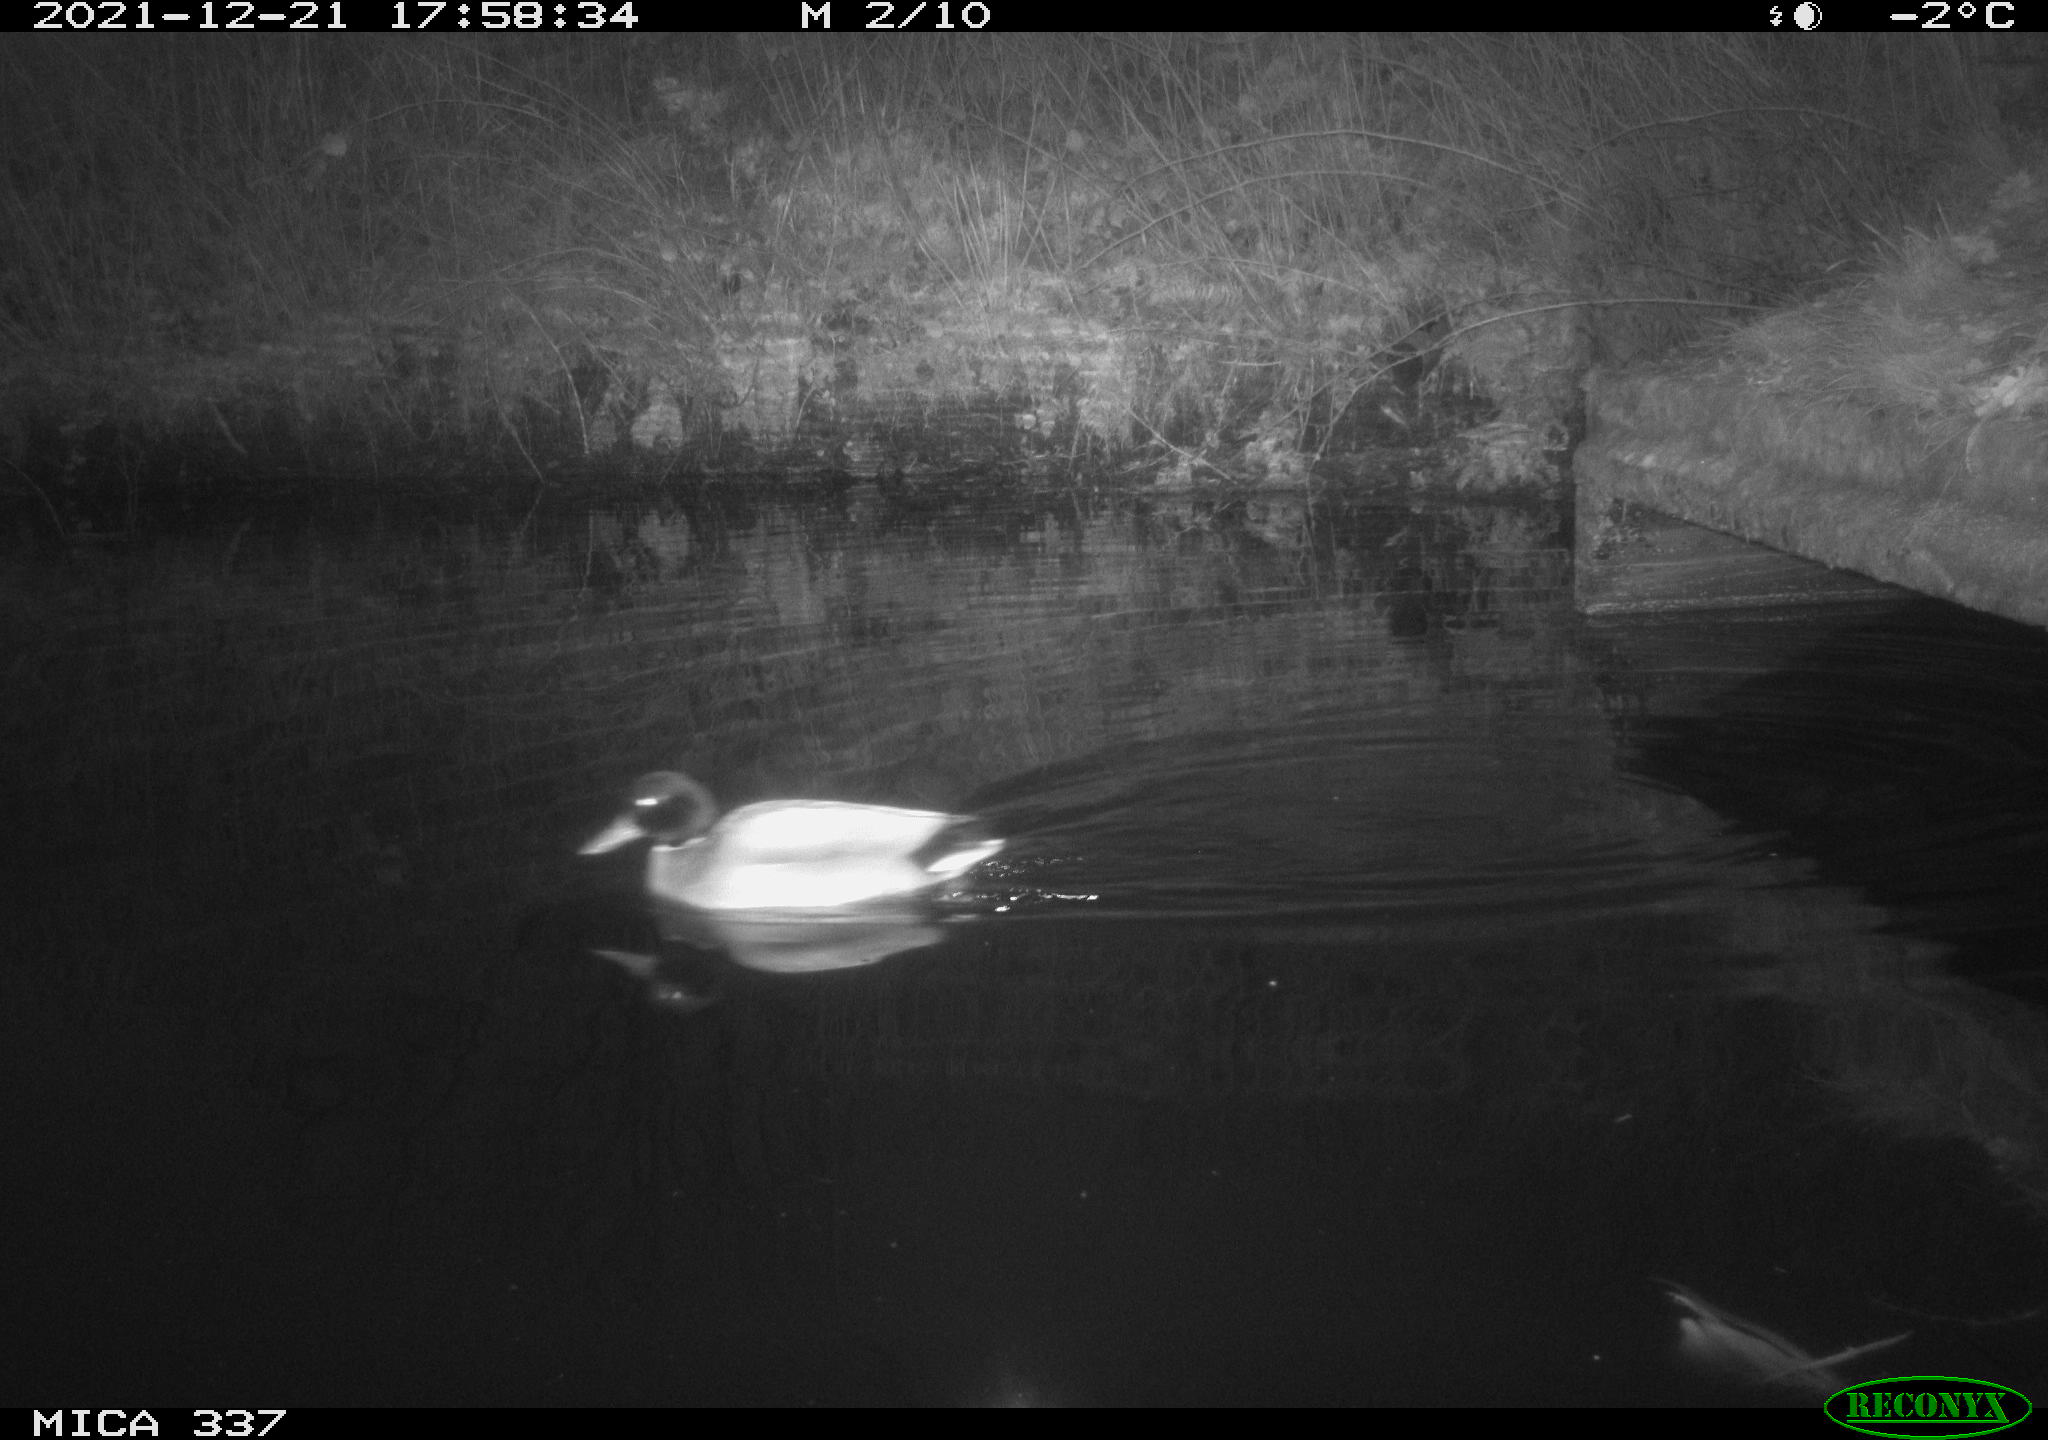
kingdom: Animalia
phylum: Chordata
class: Aves
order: Anseriformes
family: Anatidae
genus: Anas
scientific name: Anas platyrhynchos
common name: Mallard
